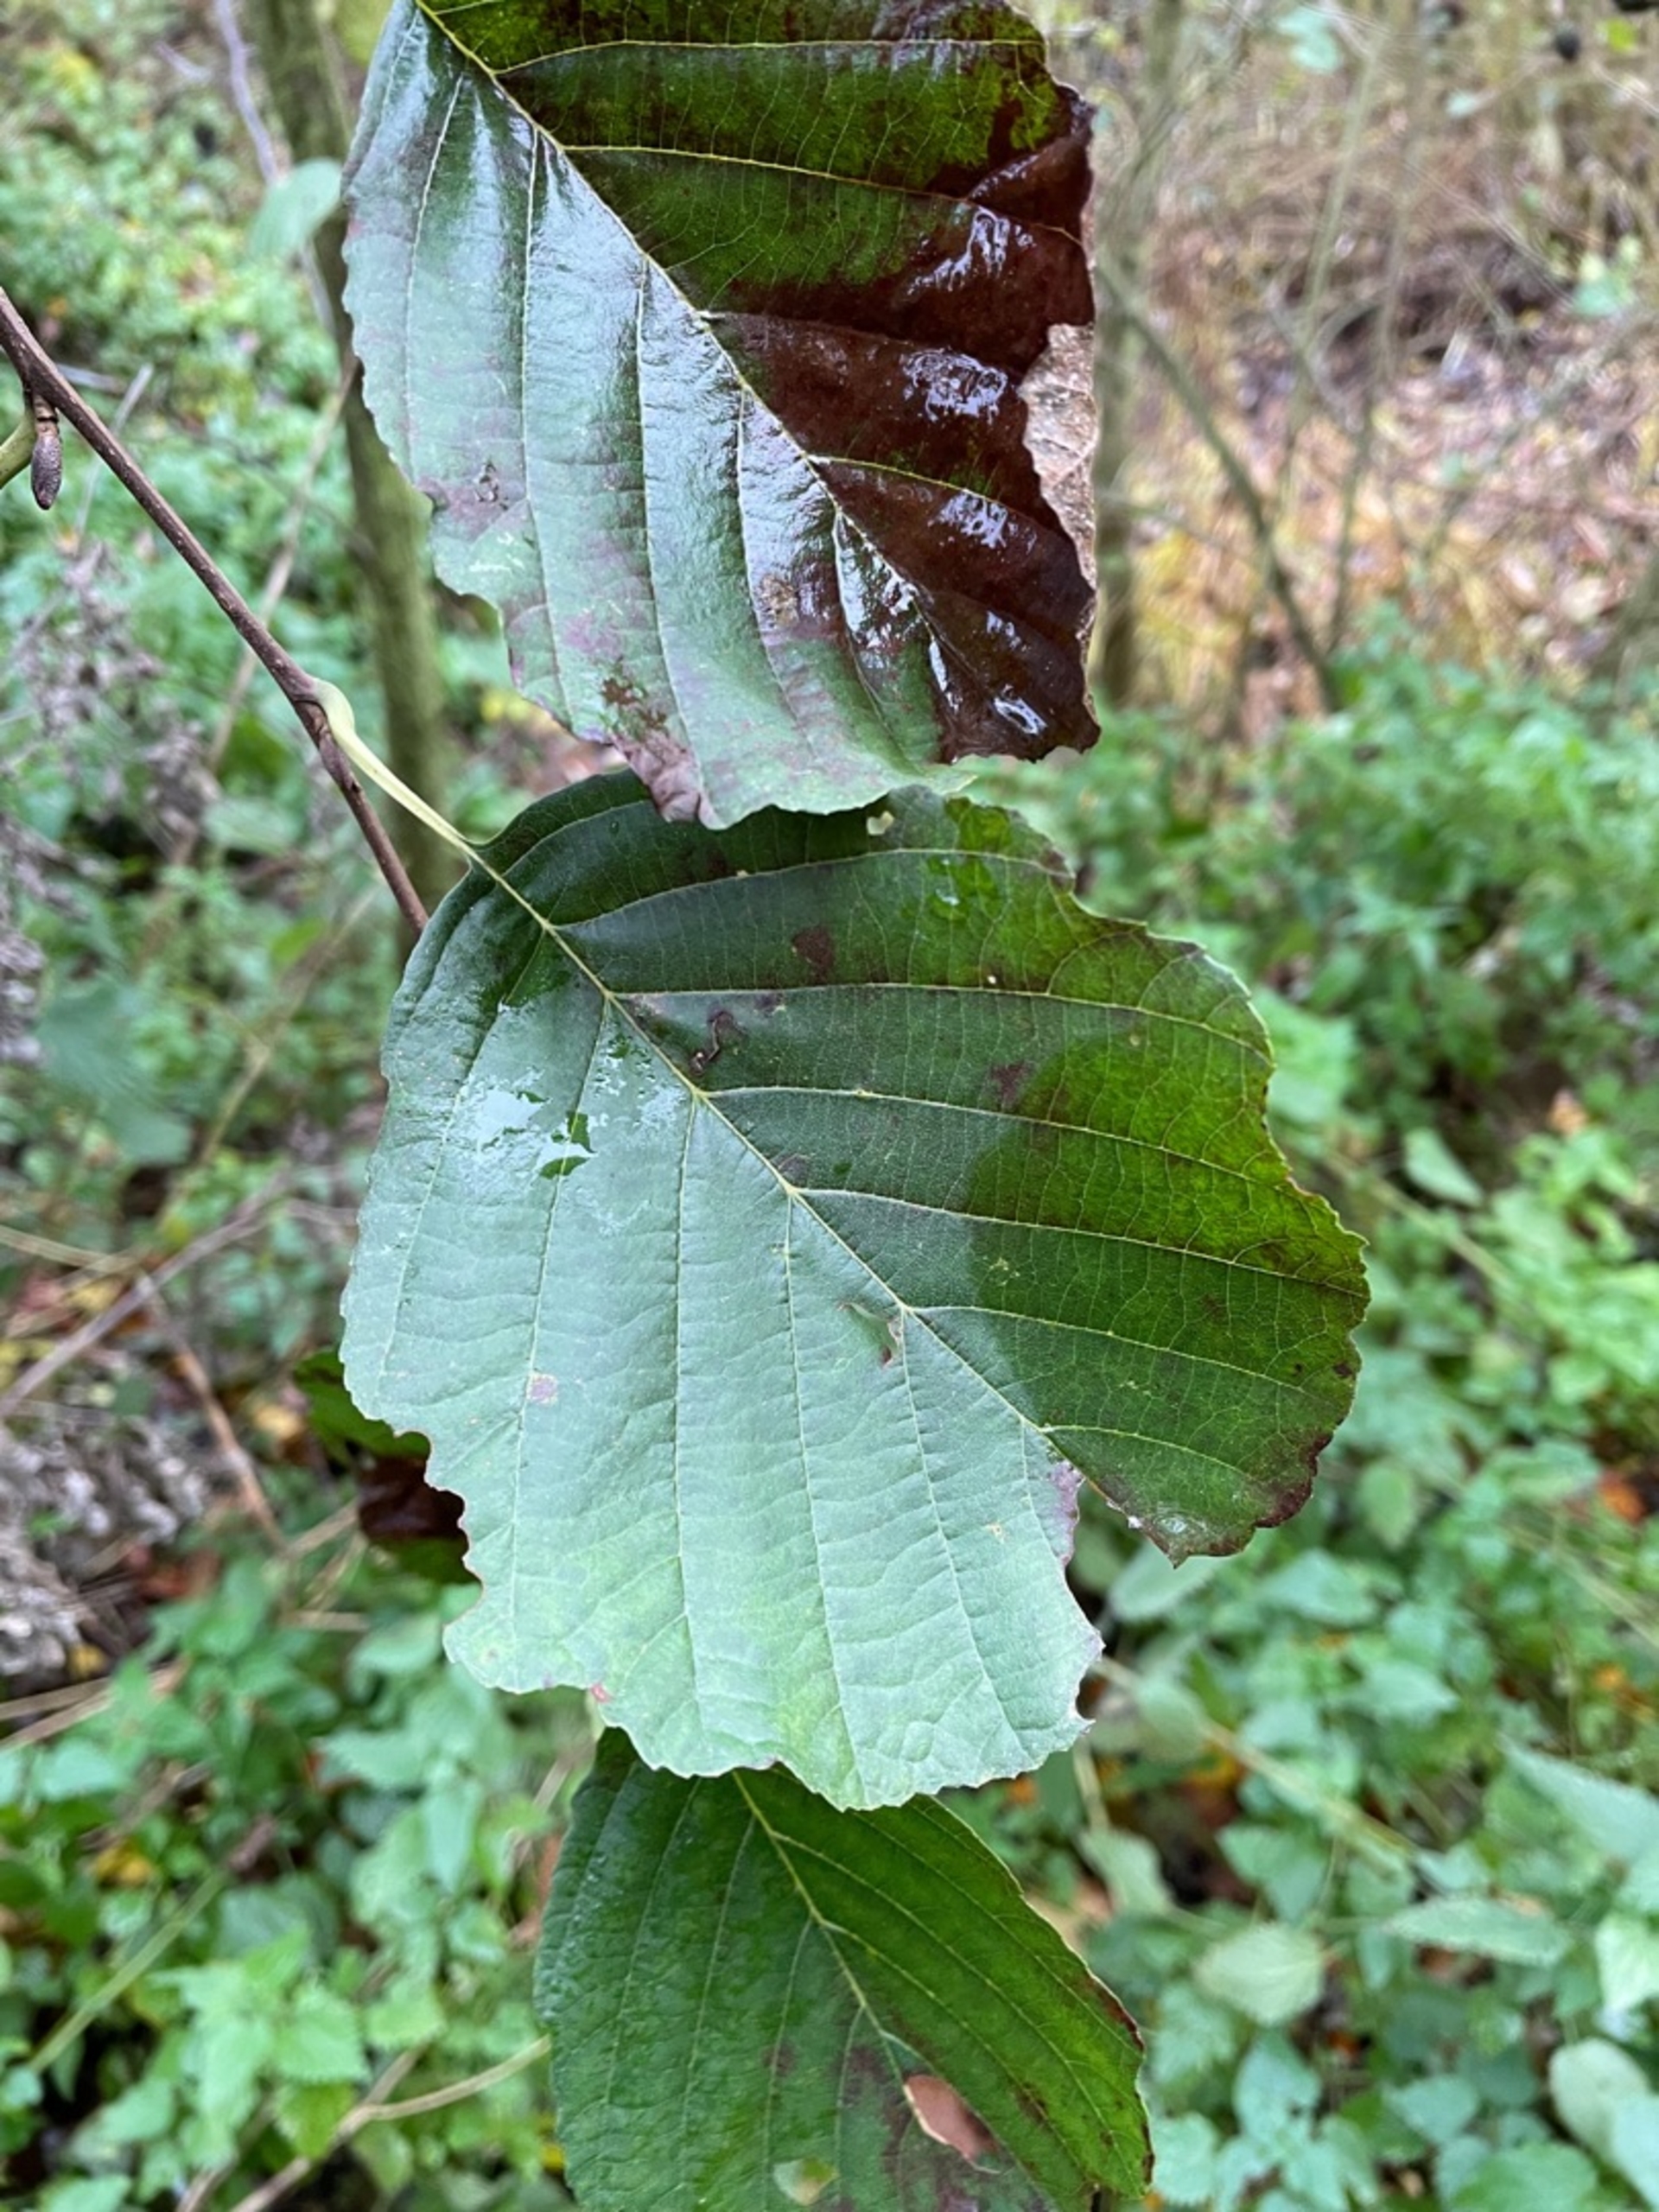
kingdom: Plantae
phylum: Tracheophyta
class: Magnoliopsida
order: Fagales
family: Betulaceae
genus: Alnus
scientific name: Alnus glutinosa
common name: Rød-el
